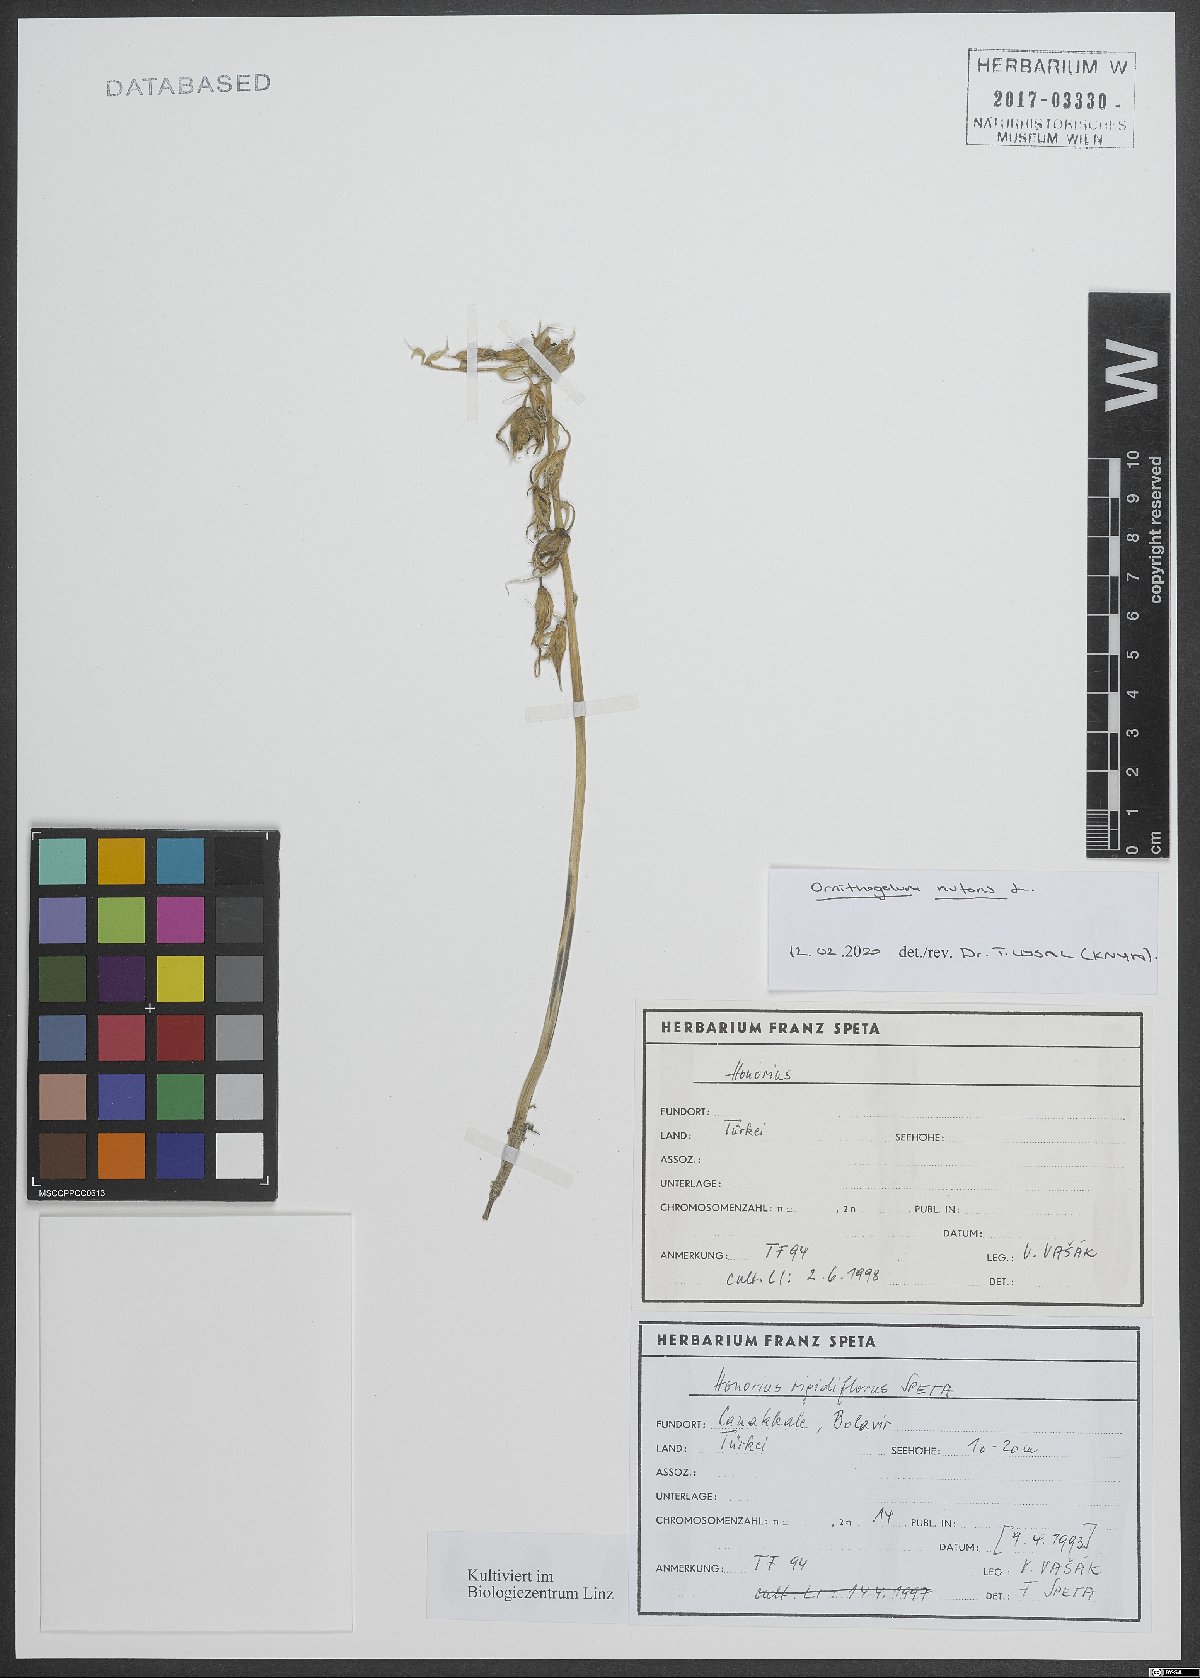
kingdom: Plantae
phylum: Tracheophyta
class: Liliopsida
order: Asparagales
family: Asparagaceae
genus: Ornithogalum
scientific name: Ornithogalum nutans
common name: Drooping star-of-bethlehem
